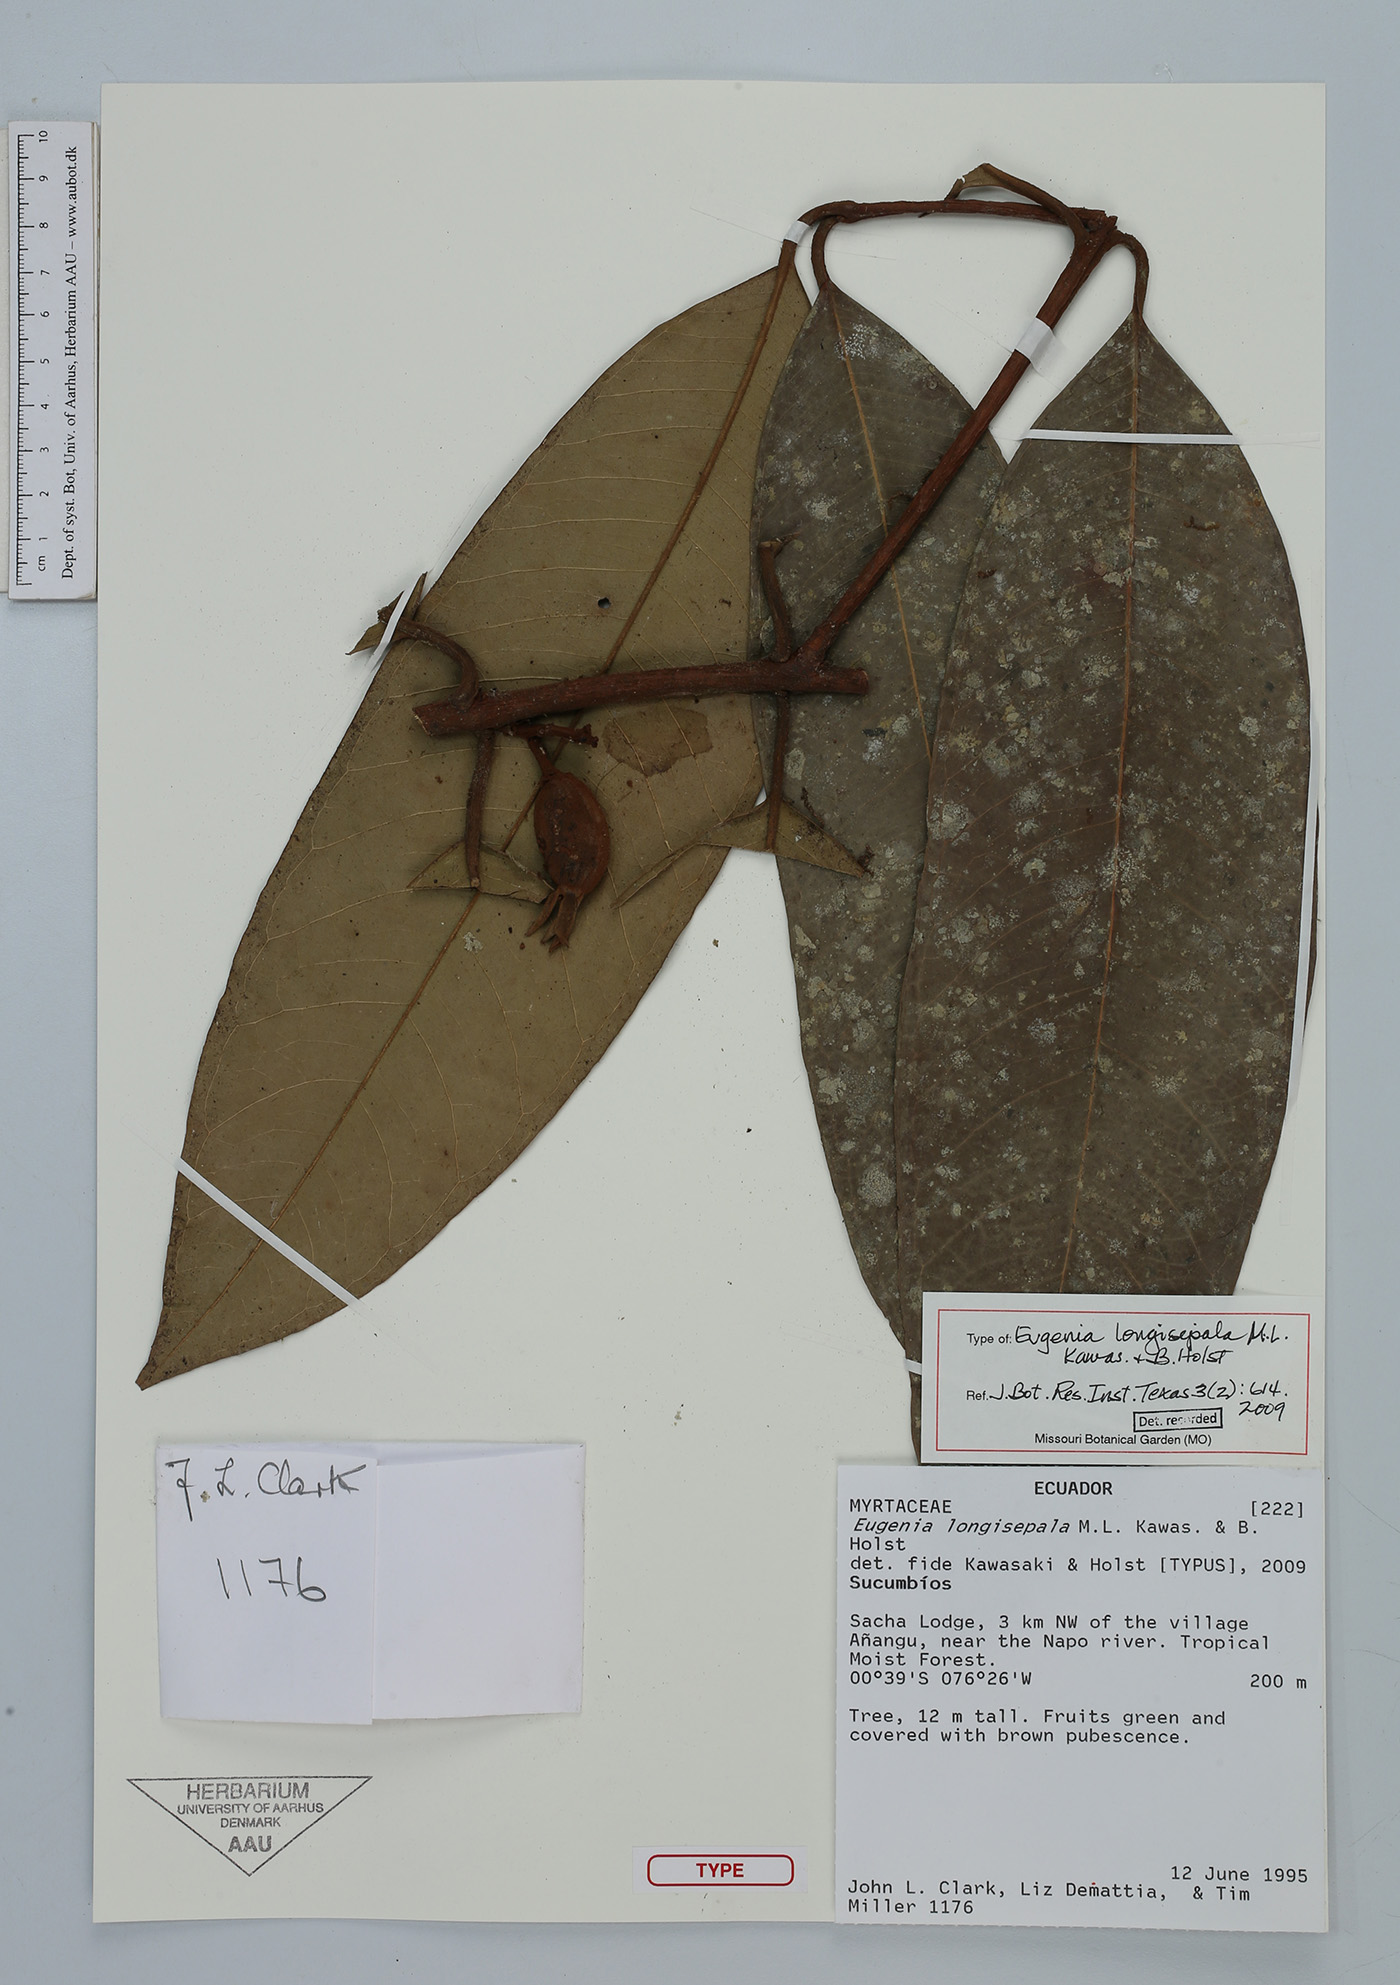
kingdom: Plantae
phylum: Tracheophyta
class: Magnoliopsida
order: Myrtales
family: Myrtaceae
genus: Eugenia
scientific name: Eugenia longisepala
